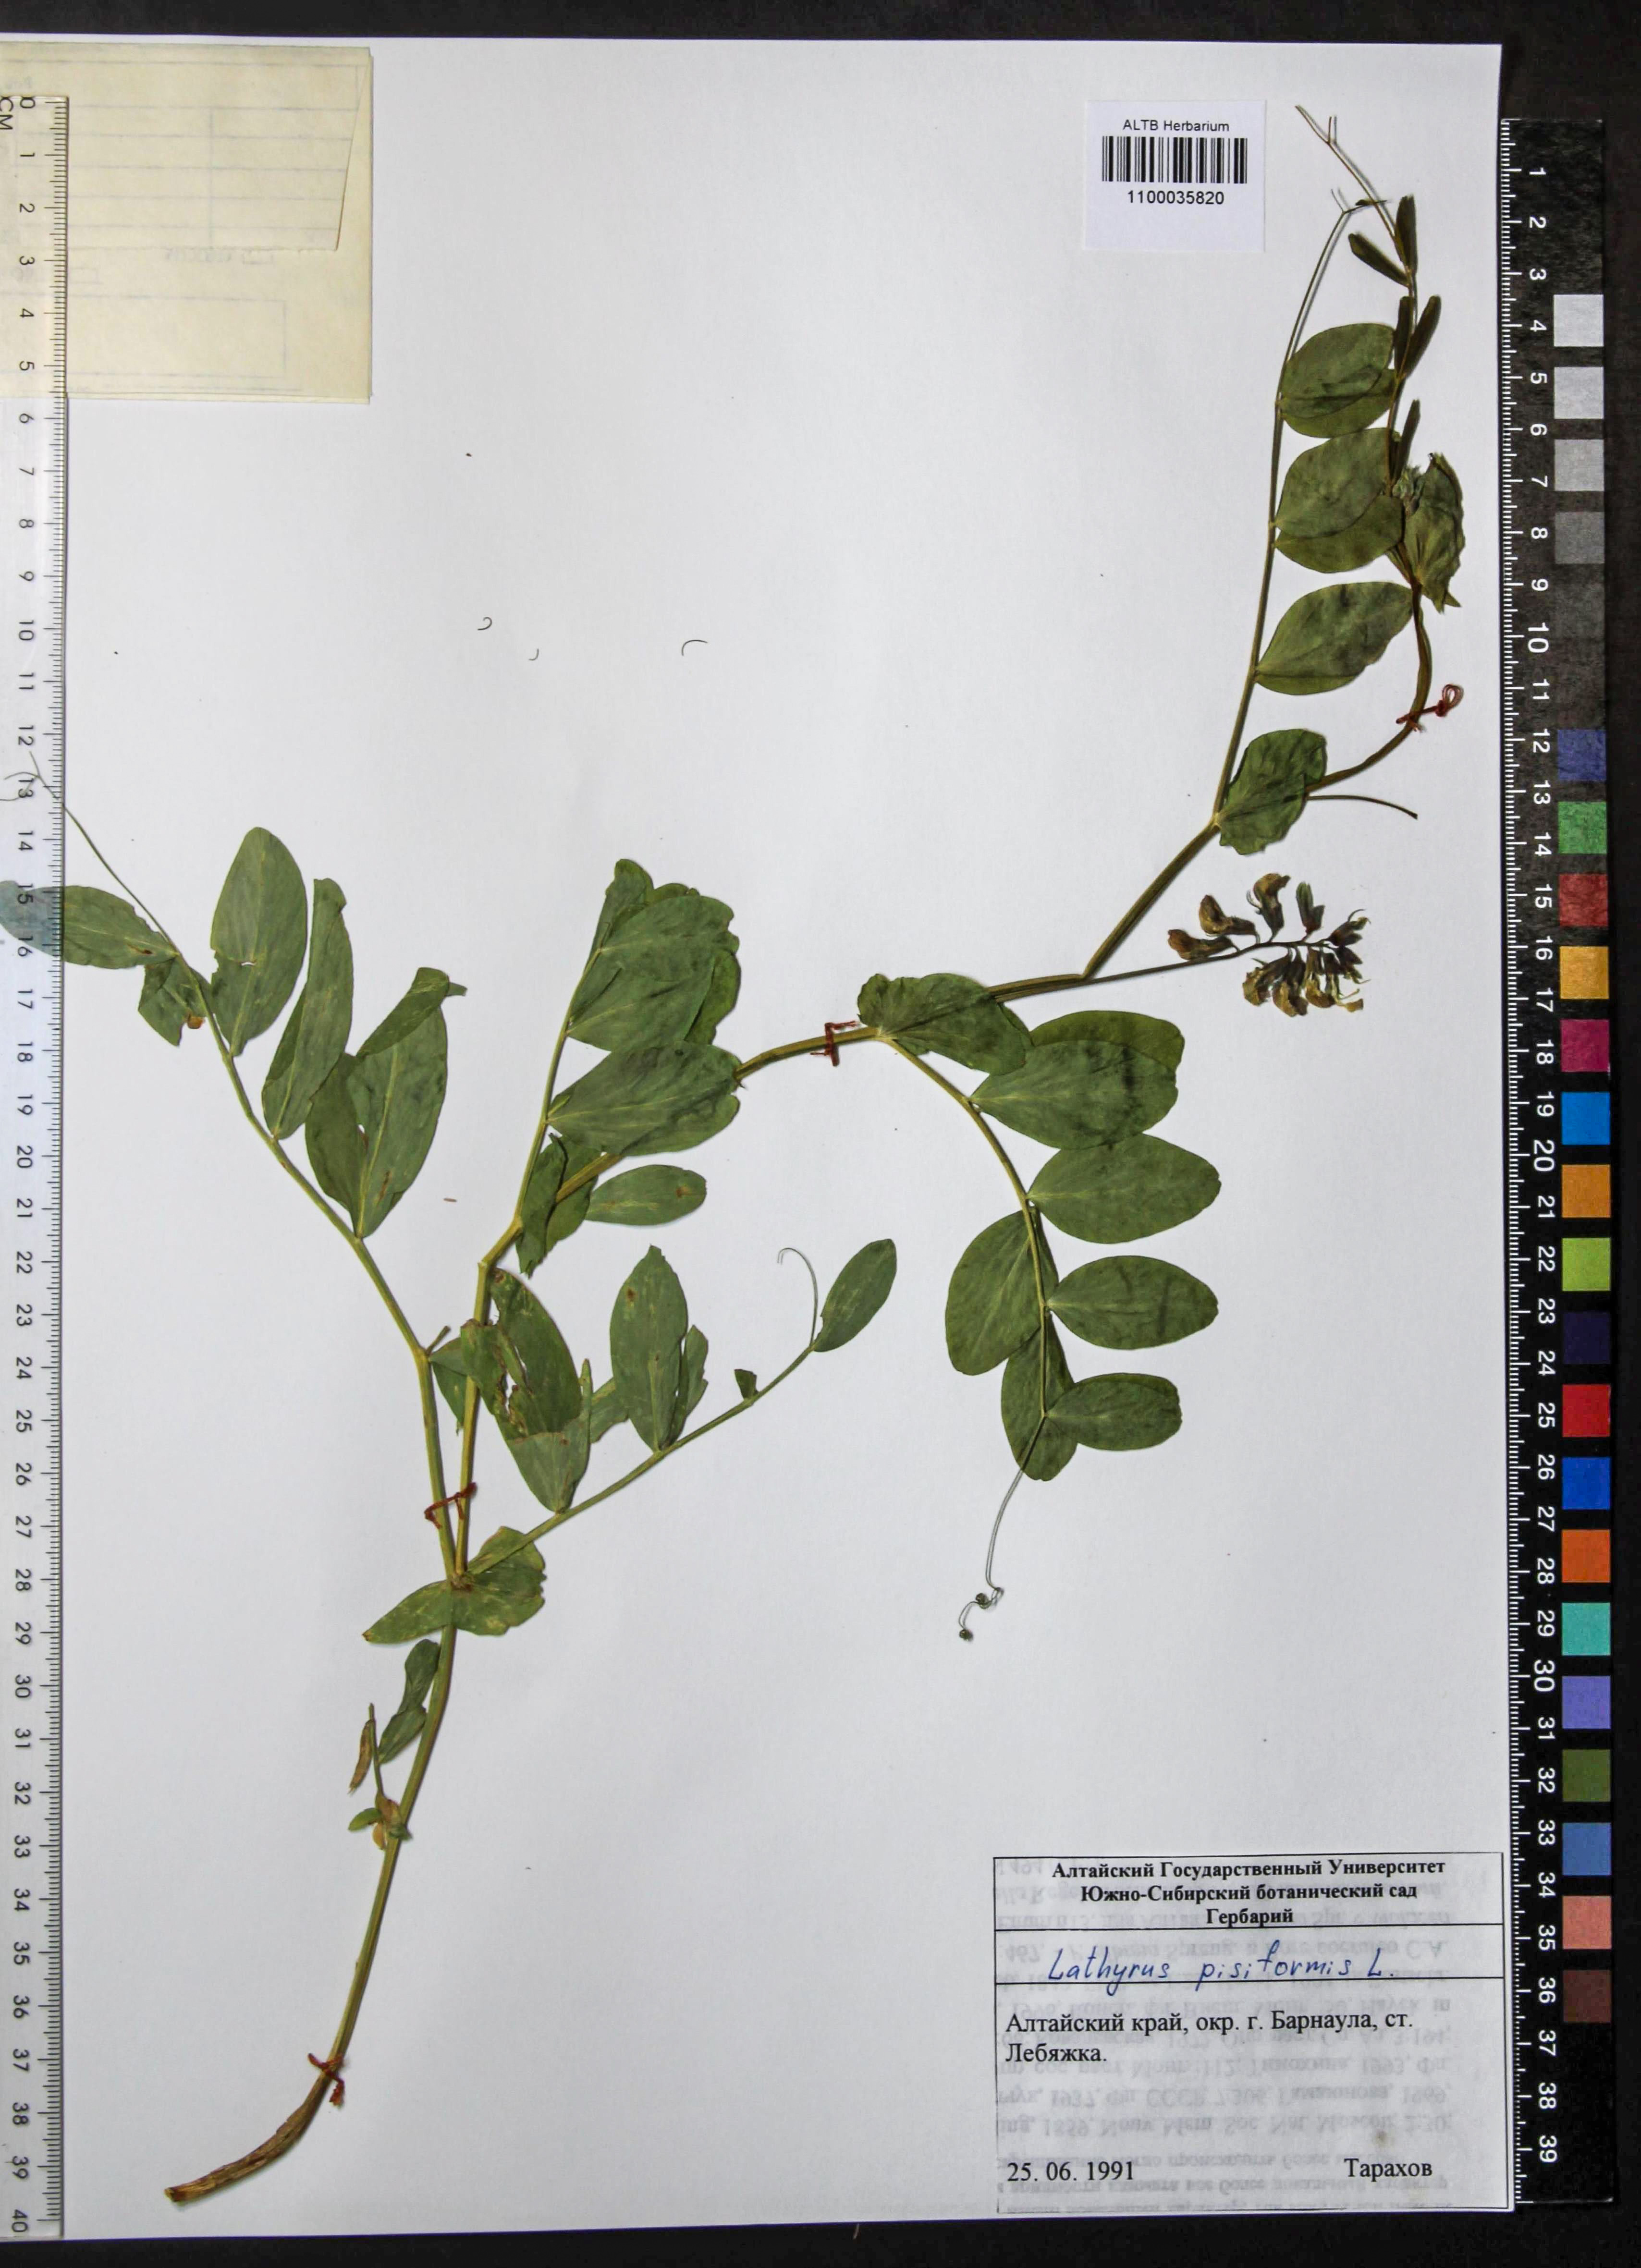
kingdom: Plantae
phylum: Tracheophyta
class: Magnoliopsida
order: Fabales
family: Fabaceae
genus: Lathyrus
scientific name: Lathyrus pisiformis
